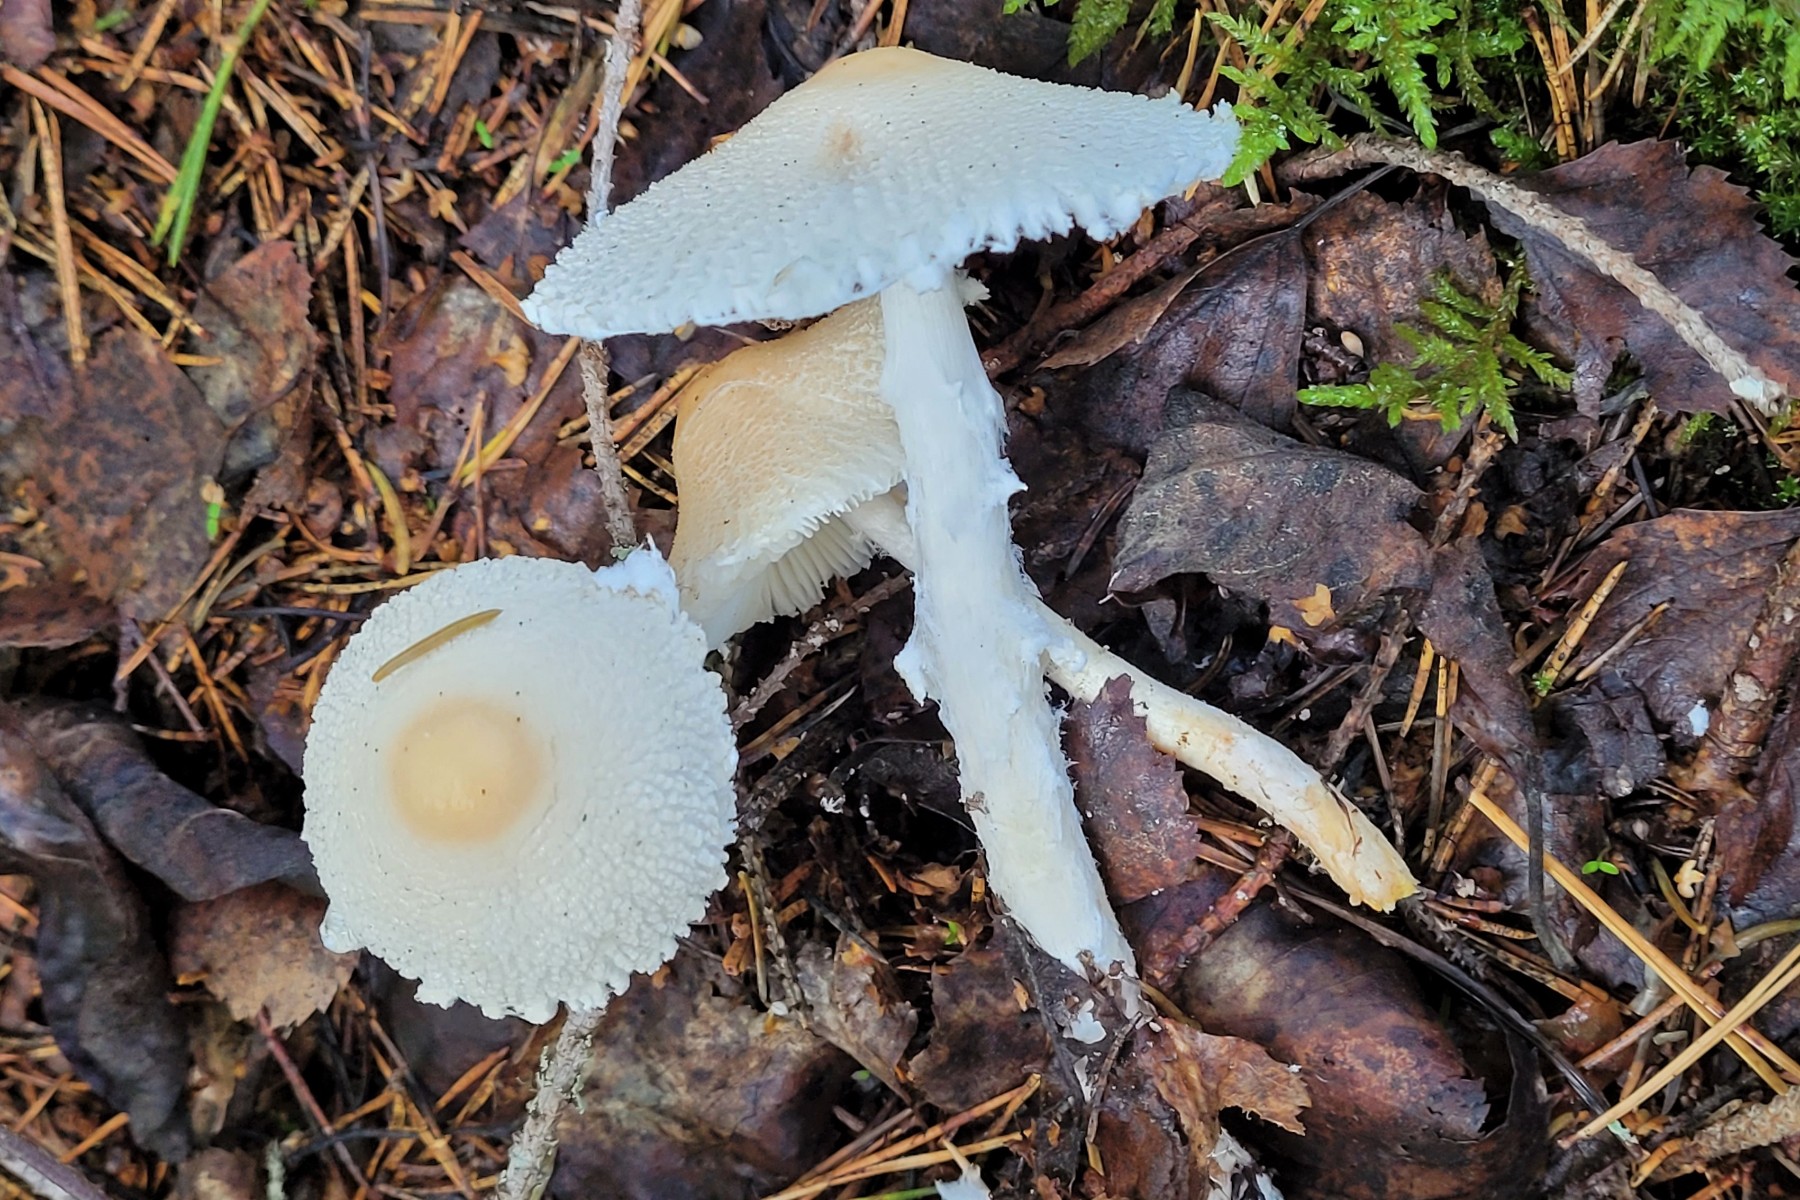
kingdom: Fungi
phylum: Basidiomycota
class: Agaricomycetes
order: Agaricales
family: Agaricaceae
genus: Lepiota
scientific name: Lepiota clypeolaria
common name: flosset parasolhat
